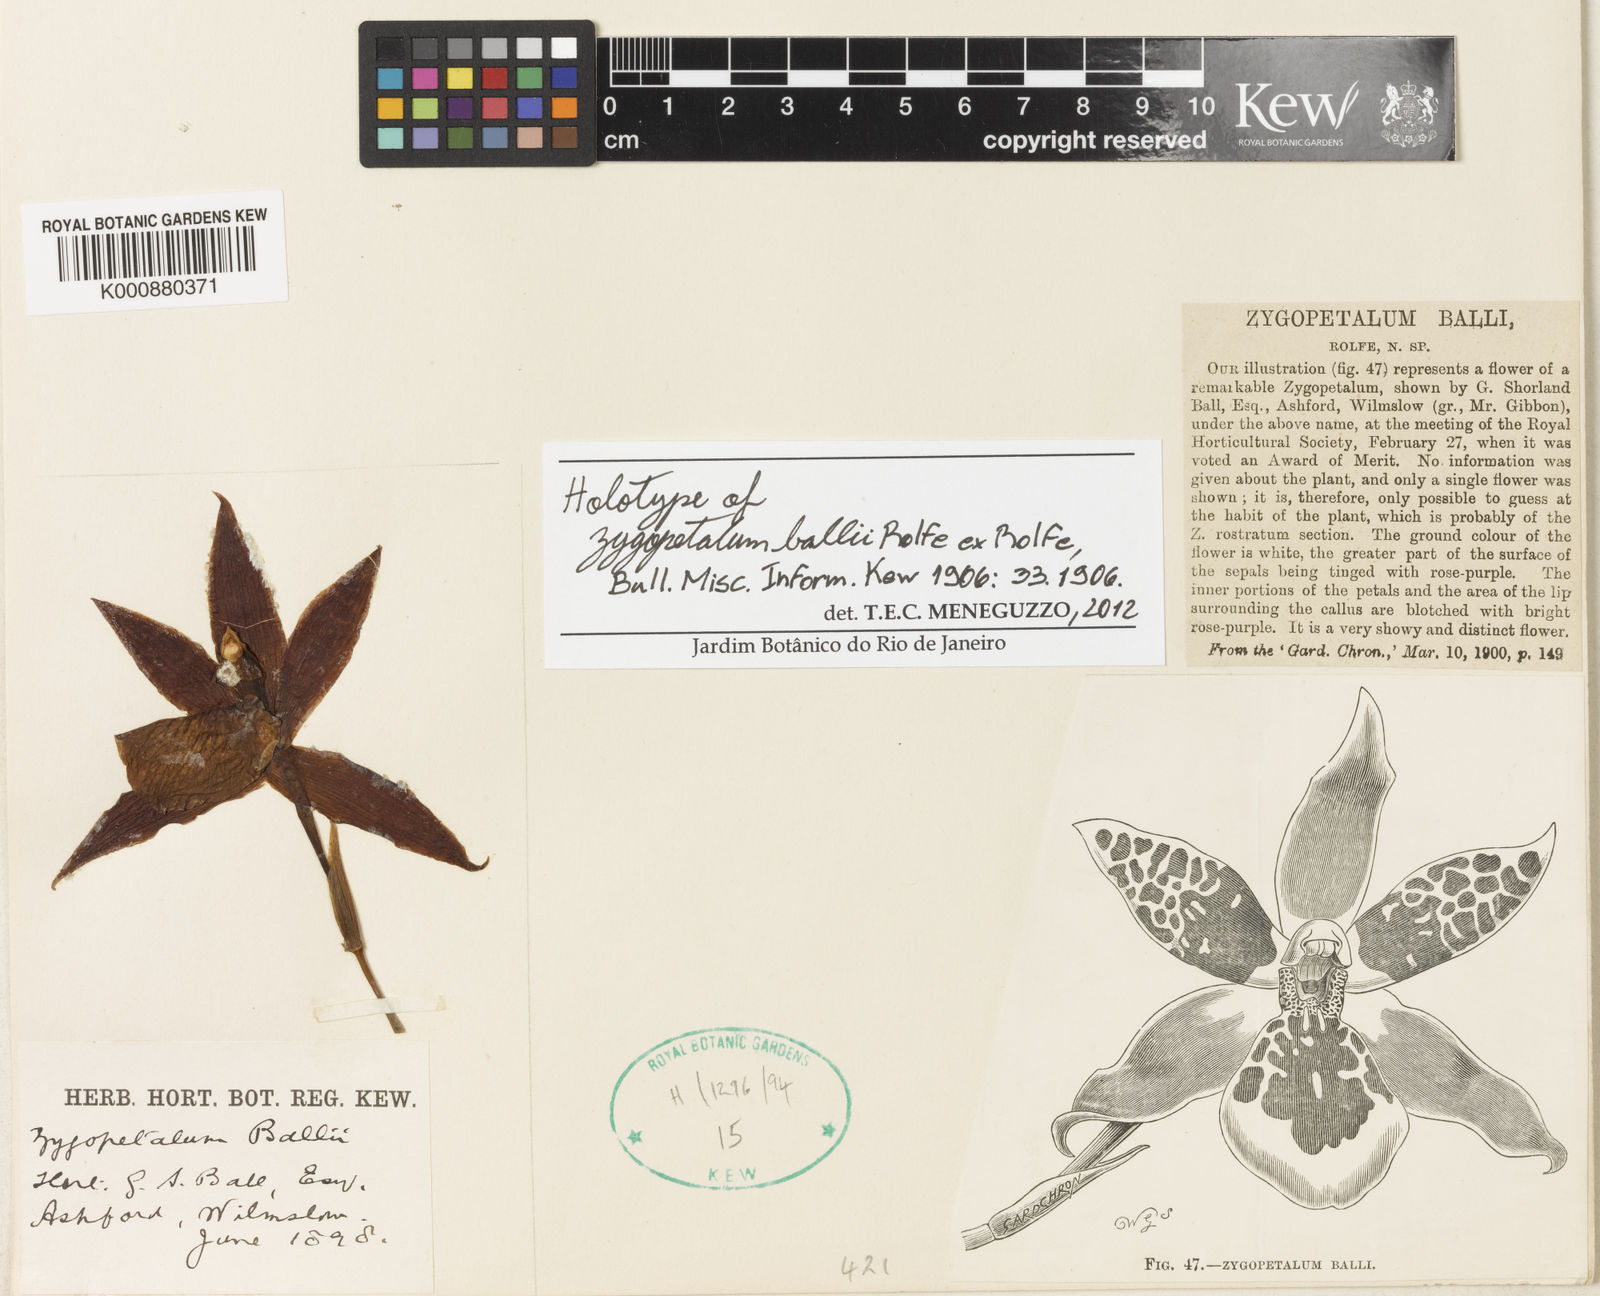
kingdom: Plantae
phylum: Tracheophyta
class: Liliopsida
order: Asparagales
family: Orchidaceae
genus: Zygosepalum
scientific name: Zygosepalum ballii
